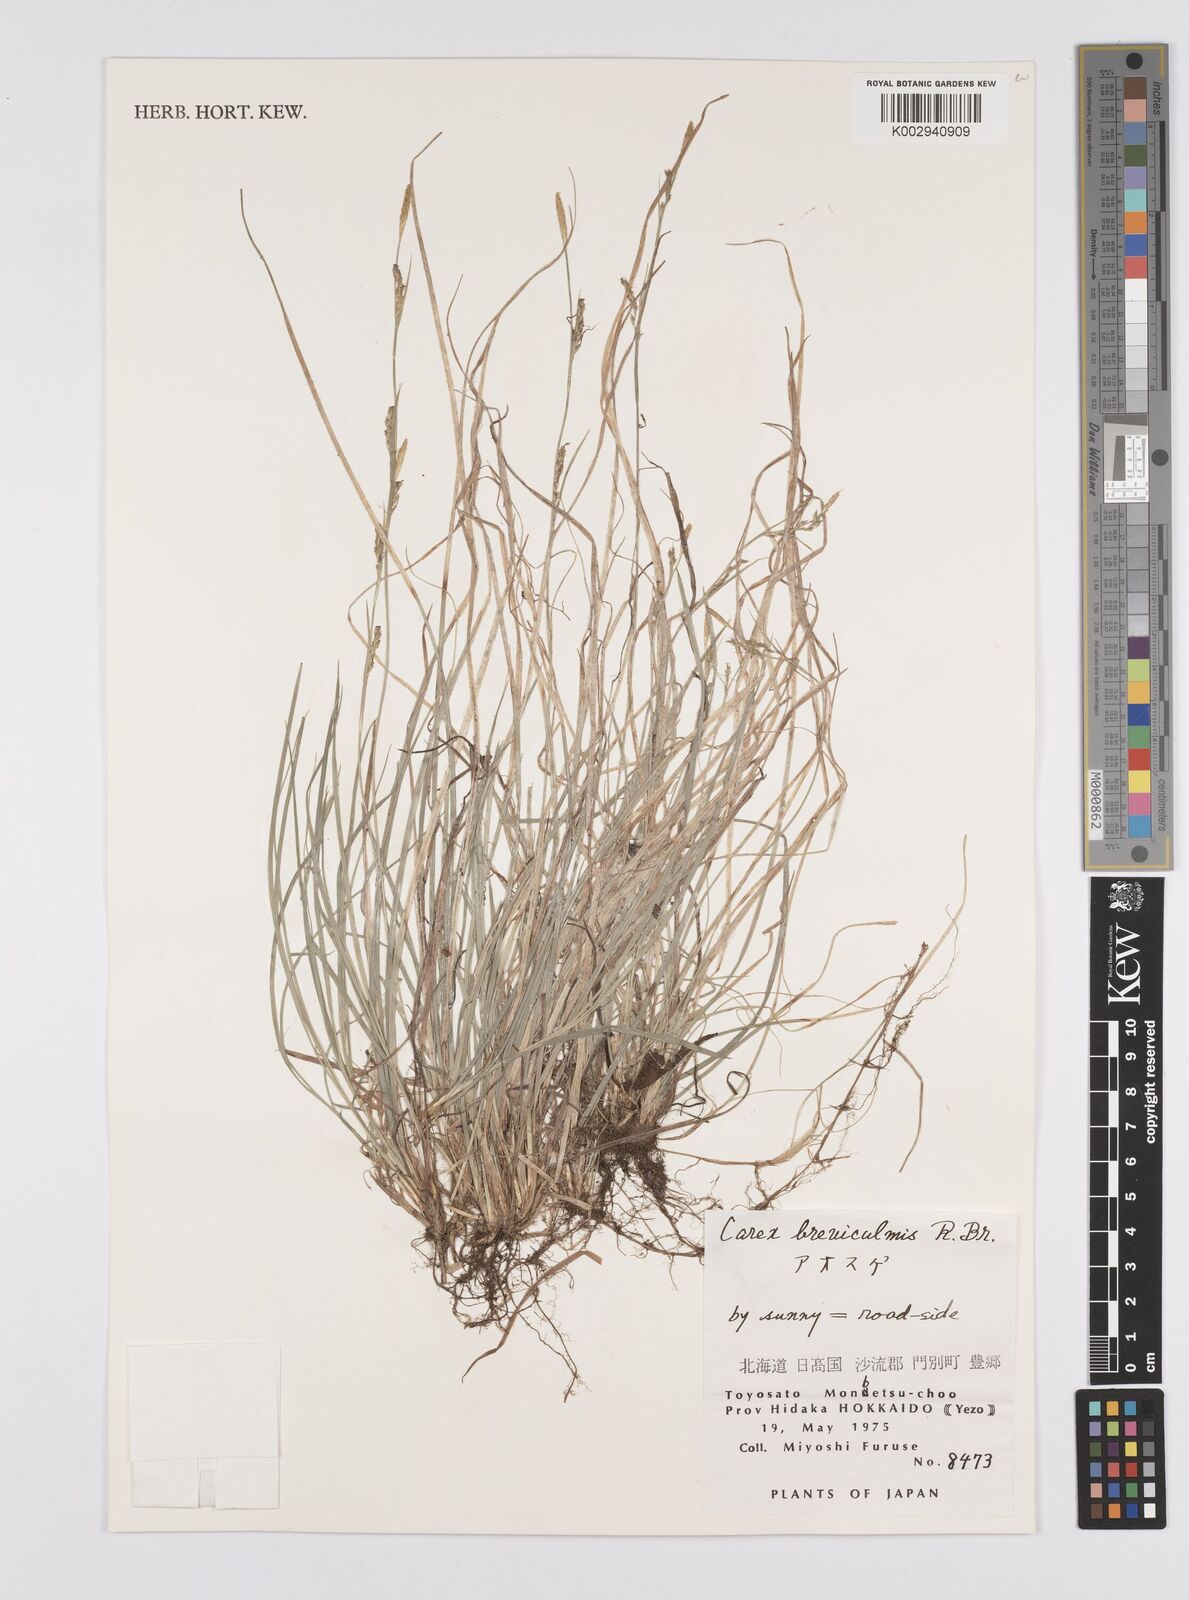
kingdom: Plantae
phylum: Tracheophyta
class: Liliopsida
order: Poales
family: Cyperaceae
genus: Carex
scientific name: Carex breviculmis
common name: Asian shortstem sedge
